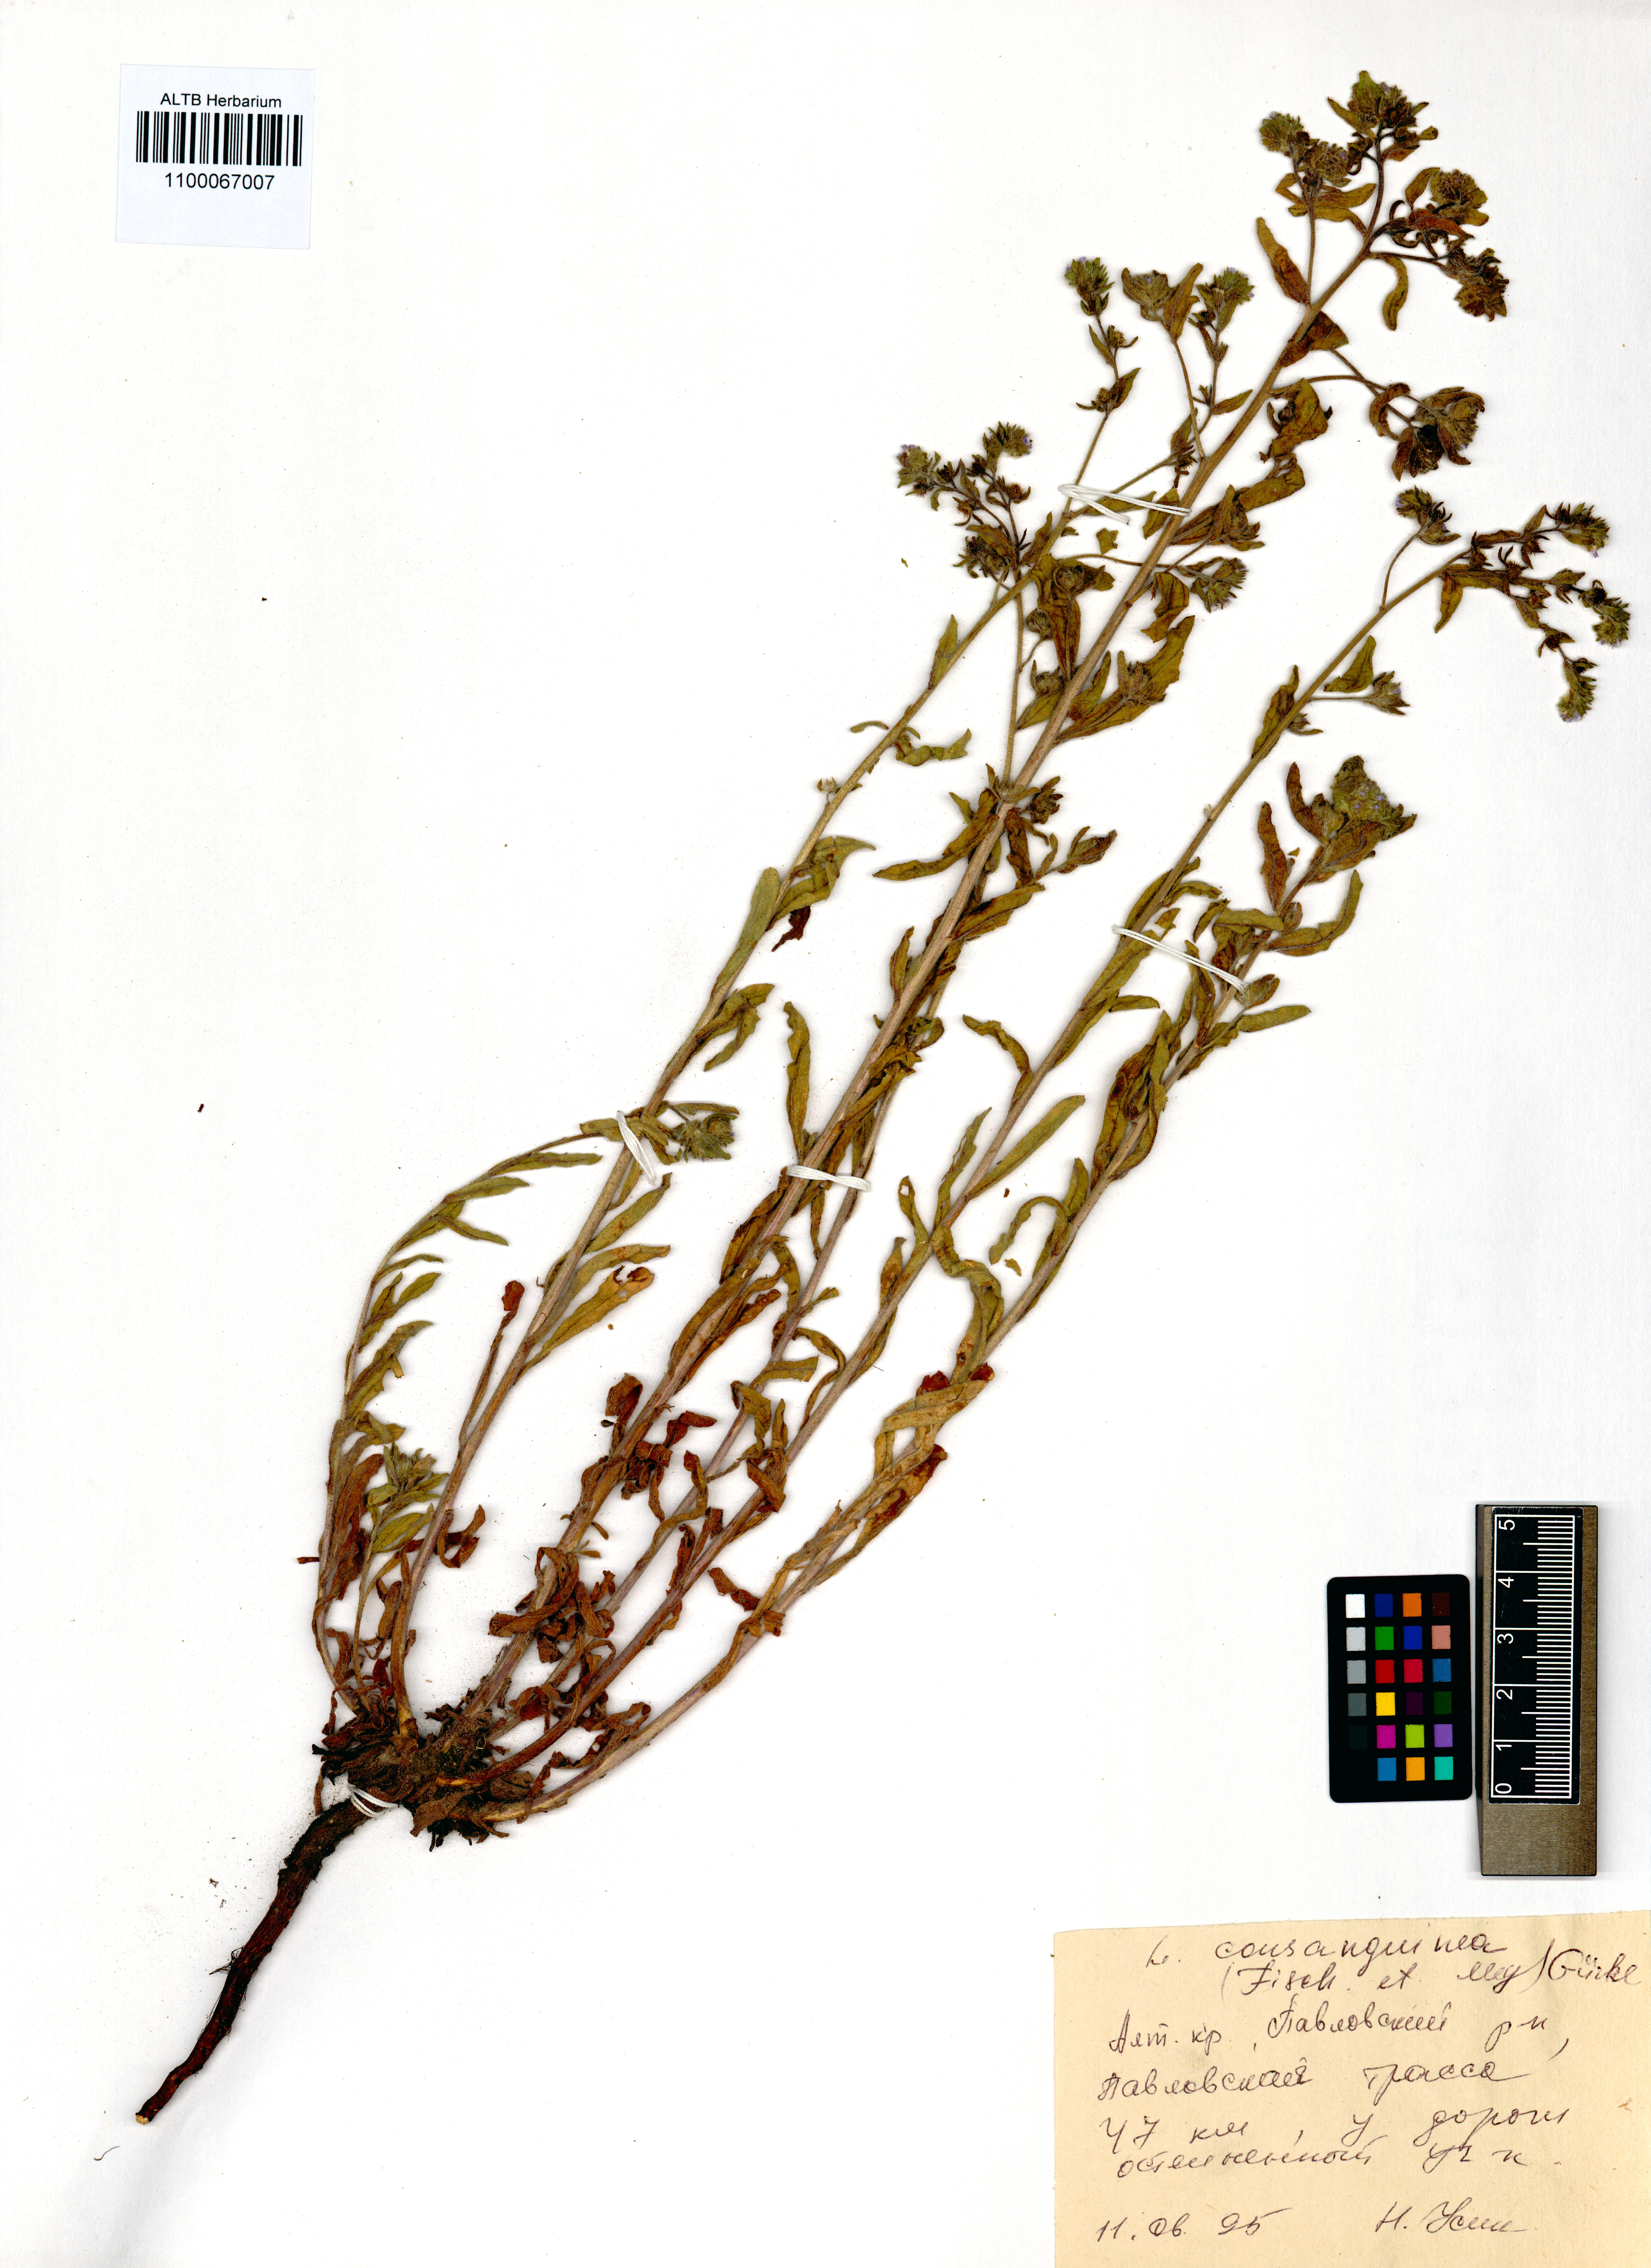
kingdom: Plantae
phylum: Tracheophyta
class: Magnoliopsida
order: Boraginales
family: Boraginaceae
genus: Lappula
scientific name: Lappula squarrosa
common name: European stickseed
